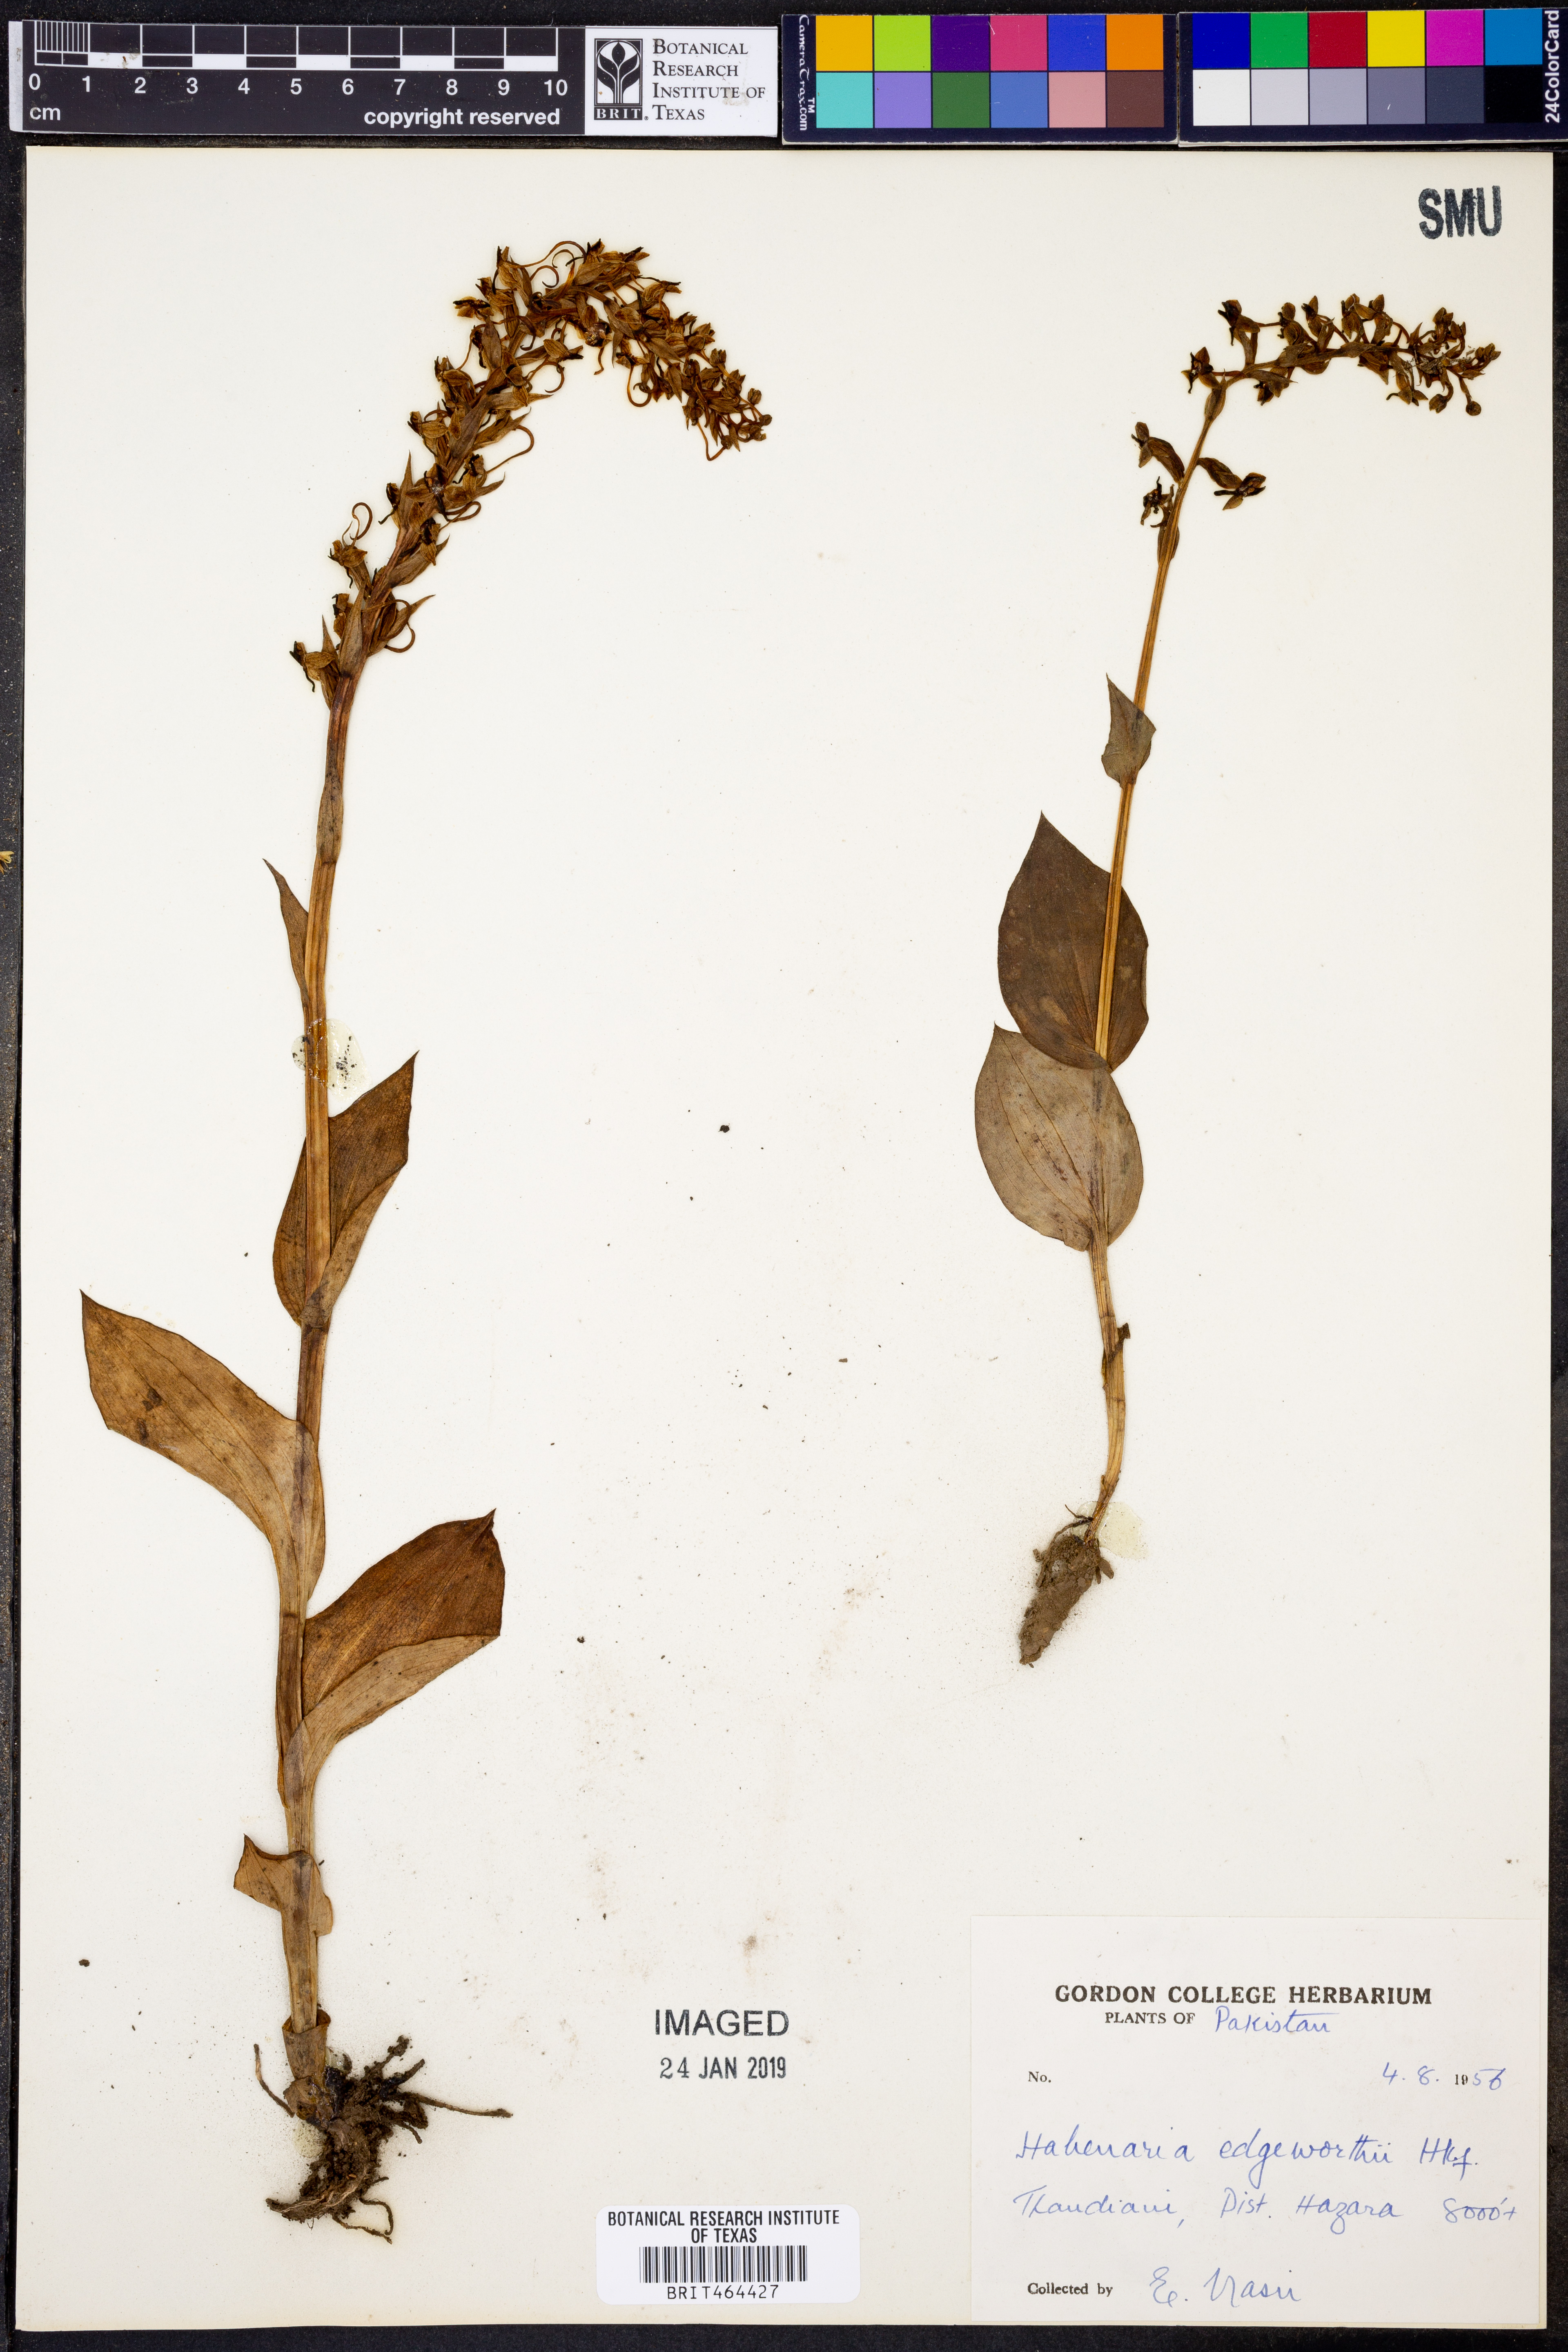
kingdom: Plantae
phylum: Tracheophyta
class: Liliopsida
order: Asparagales
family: Orchidaceae
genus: Herminium
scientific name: Herminium edgeworthii
